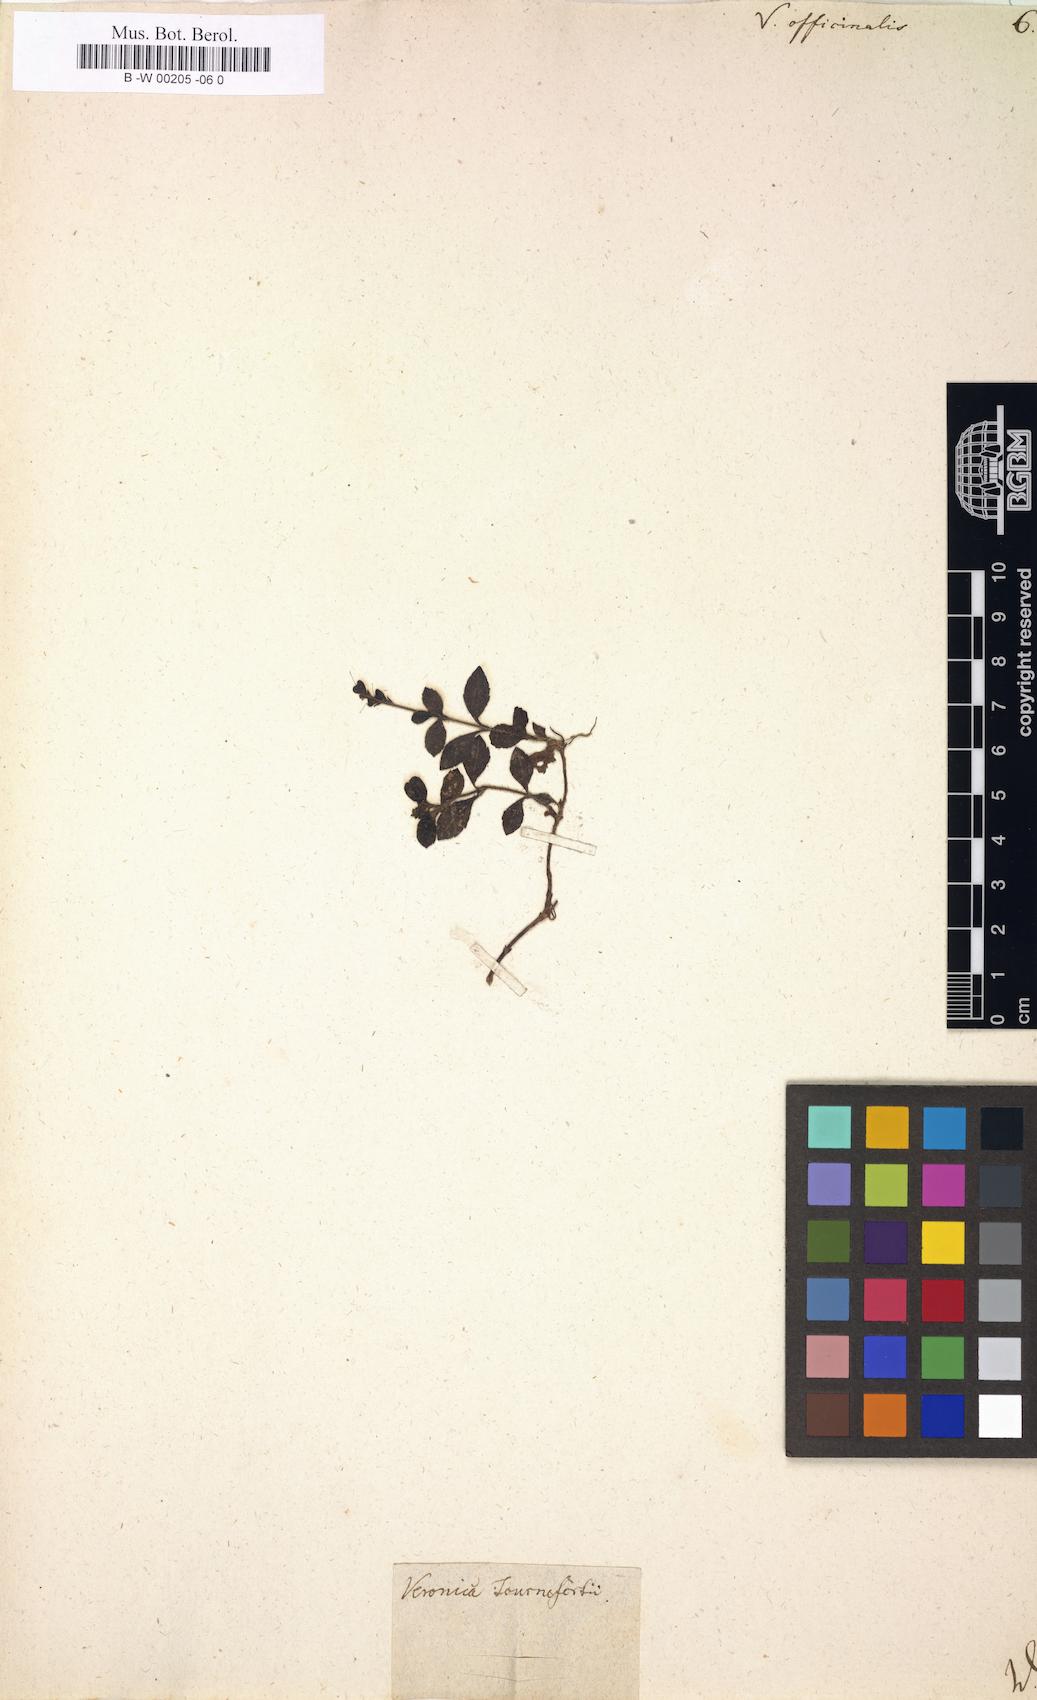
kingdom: Plantae
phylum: Tracheophyta
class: Magnoliopsida
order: Lamiales
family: Plantaginaceae
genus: Veronica
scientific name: Veronica officinalis
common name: Common speedwell
